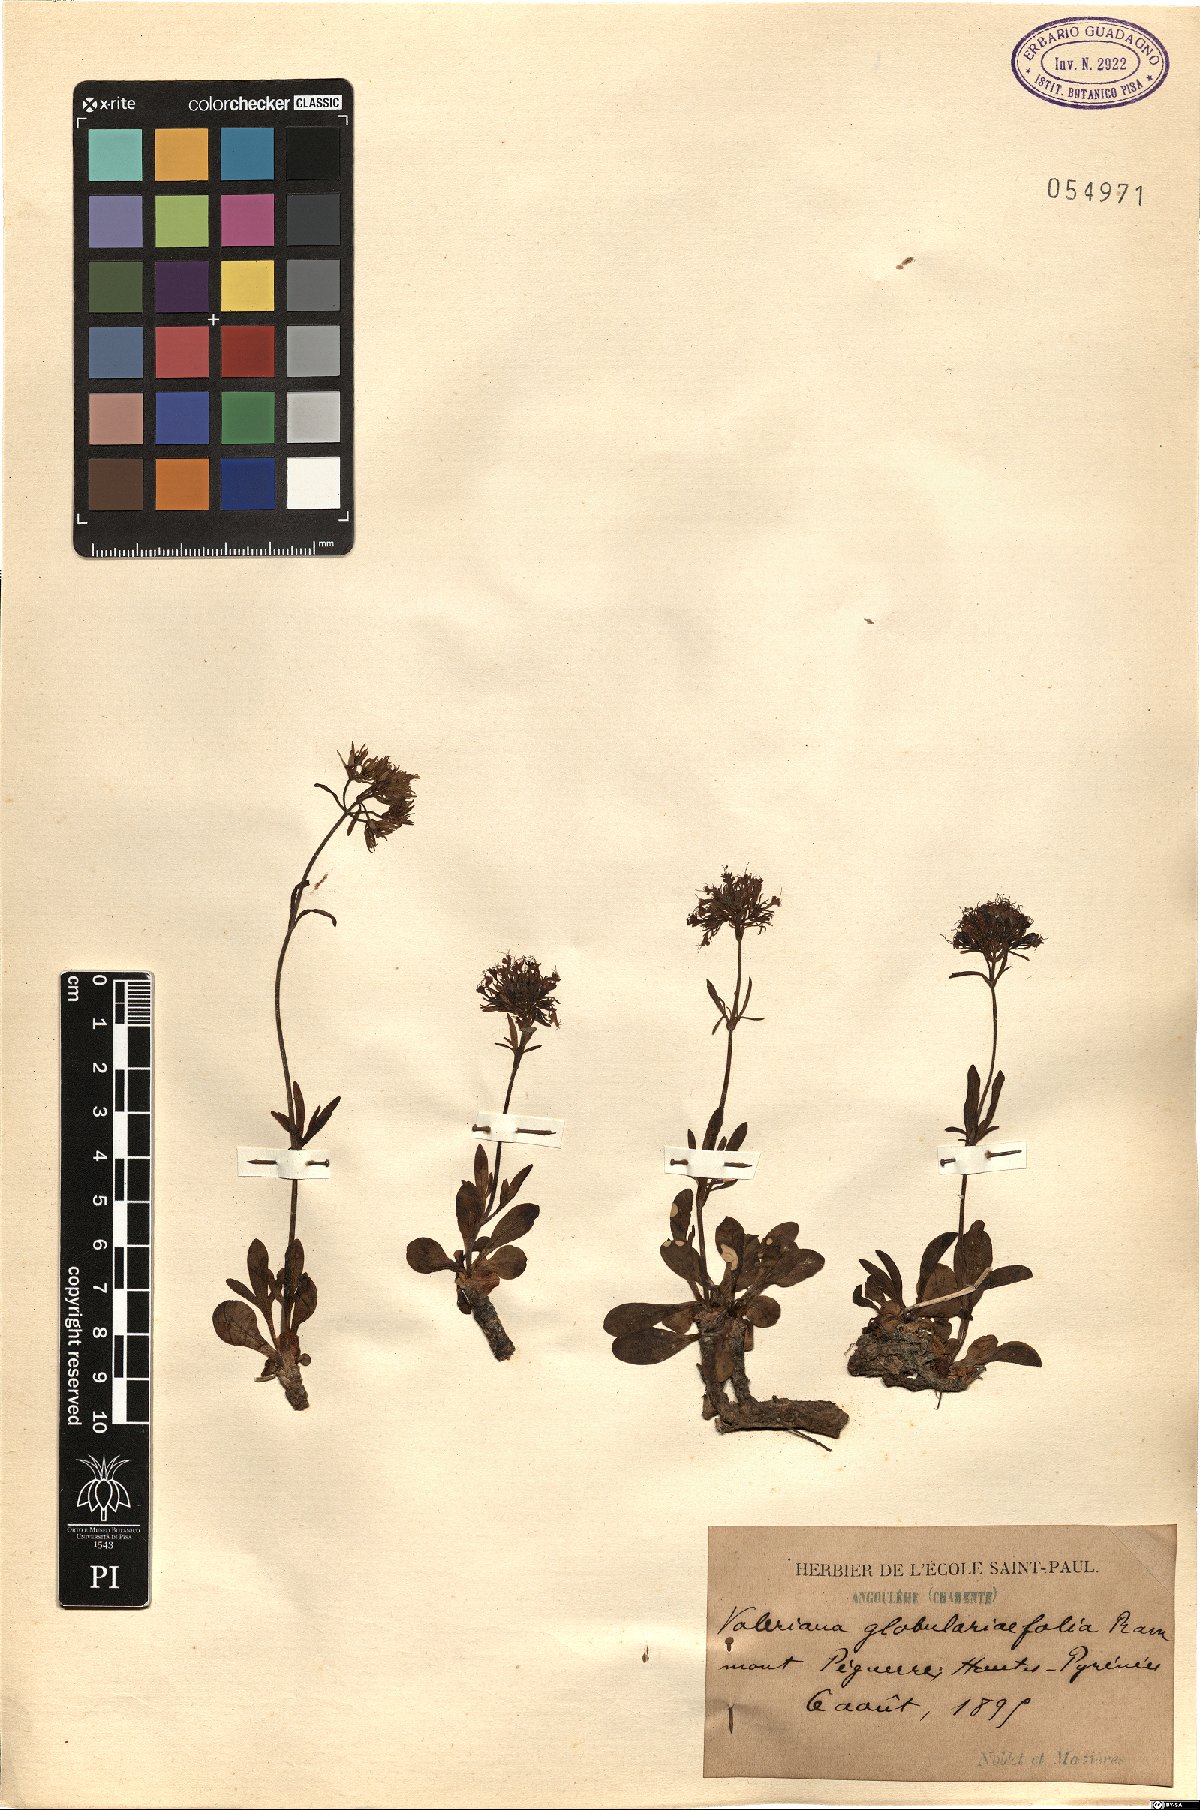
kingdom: Plantae
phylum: Tracheophyta
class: Magnoliopsida
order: Dipsacales
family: Caprifoliaceae
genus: Valeriana
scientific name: Valeriana apula
